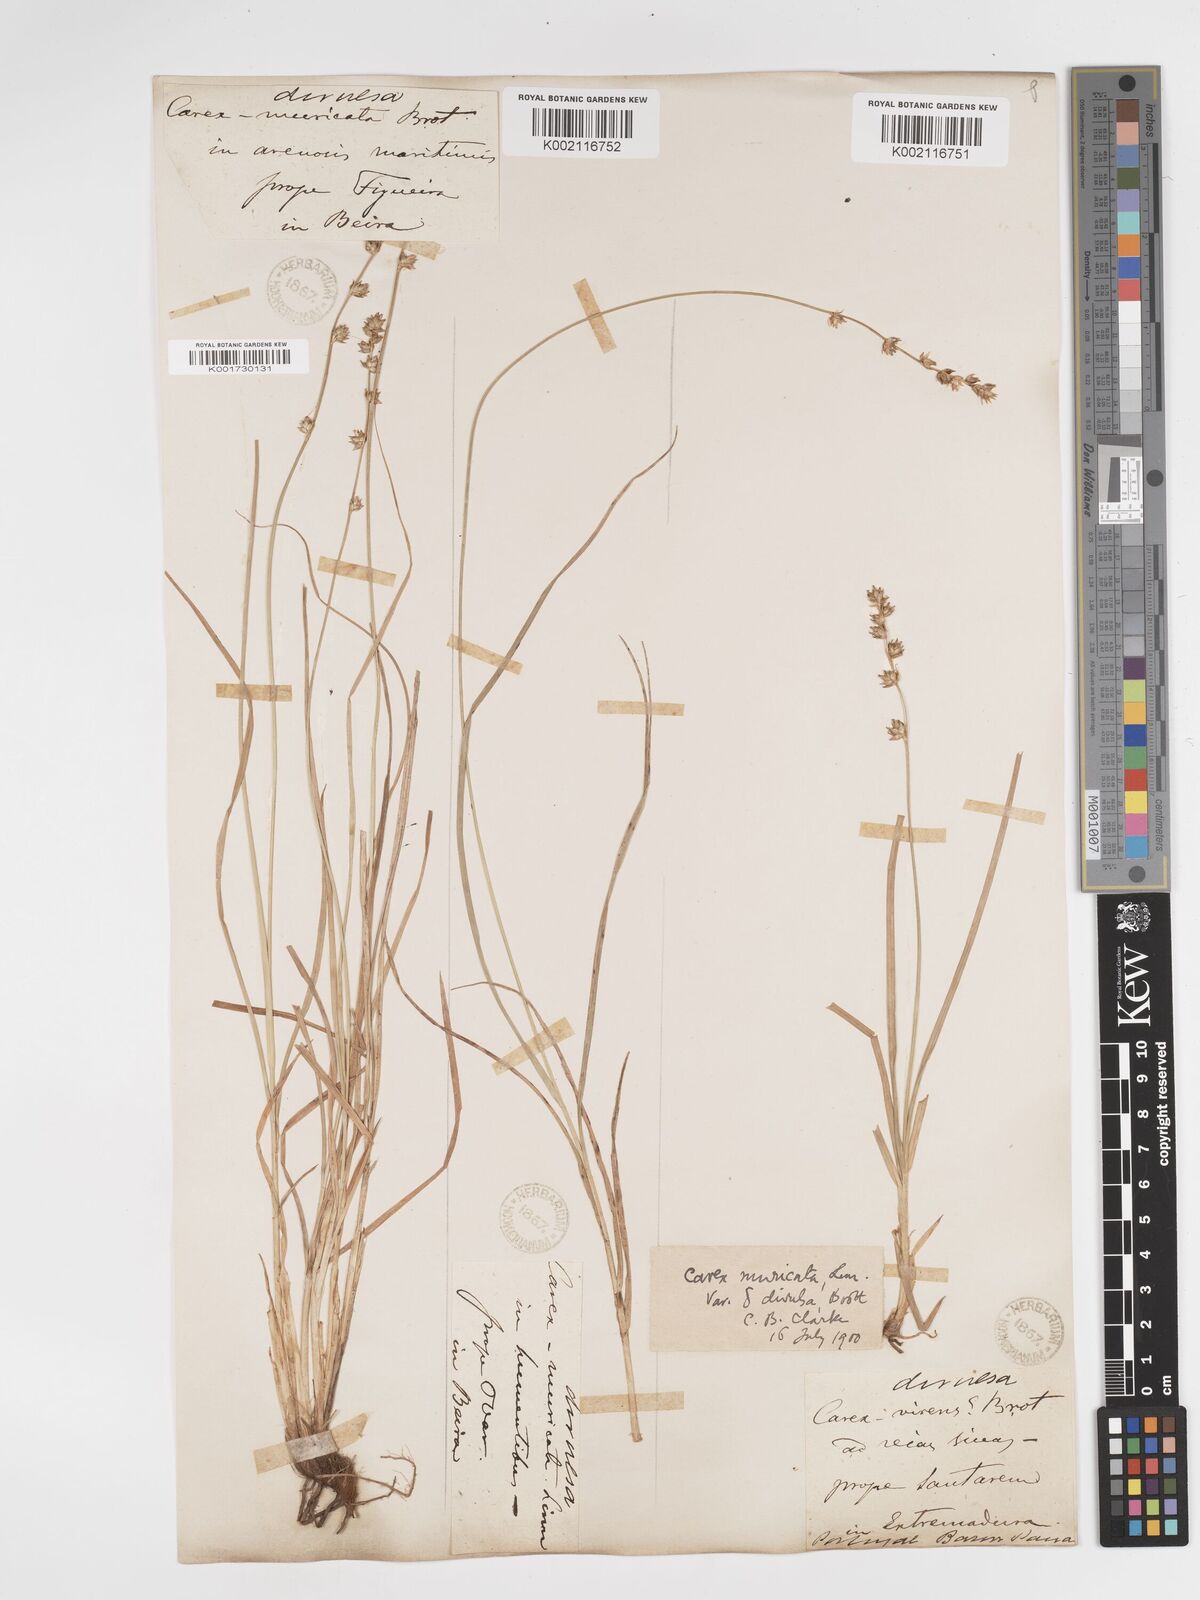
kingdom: Plantae
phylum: Tracheophyta
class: Liliopsida
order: Poales
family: Cyperaceae
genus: Carex
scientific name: Carex divulsa
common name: Grassland sedge
